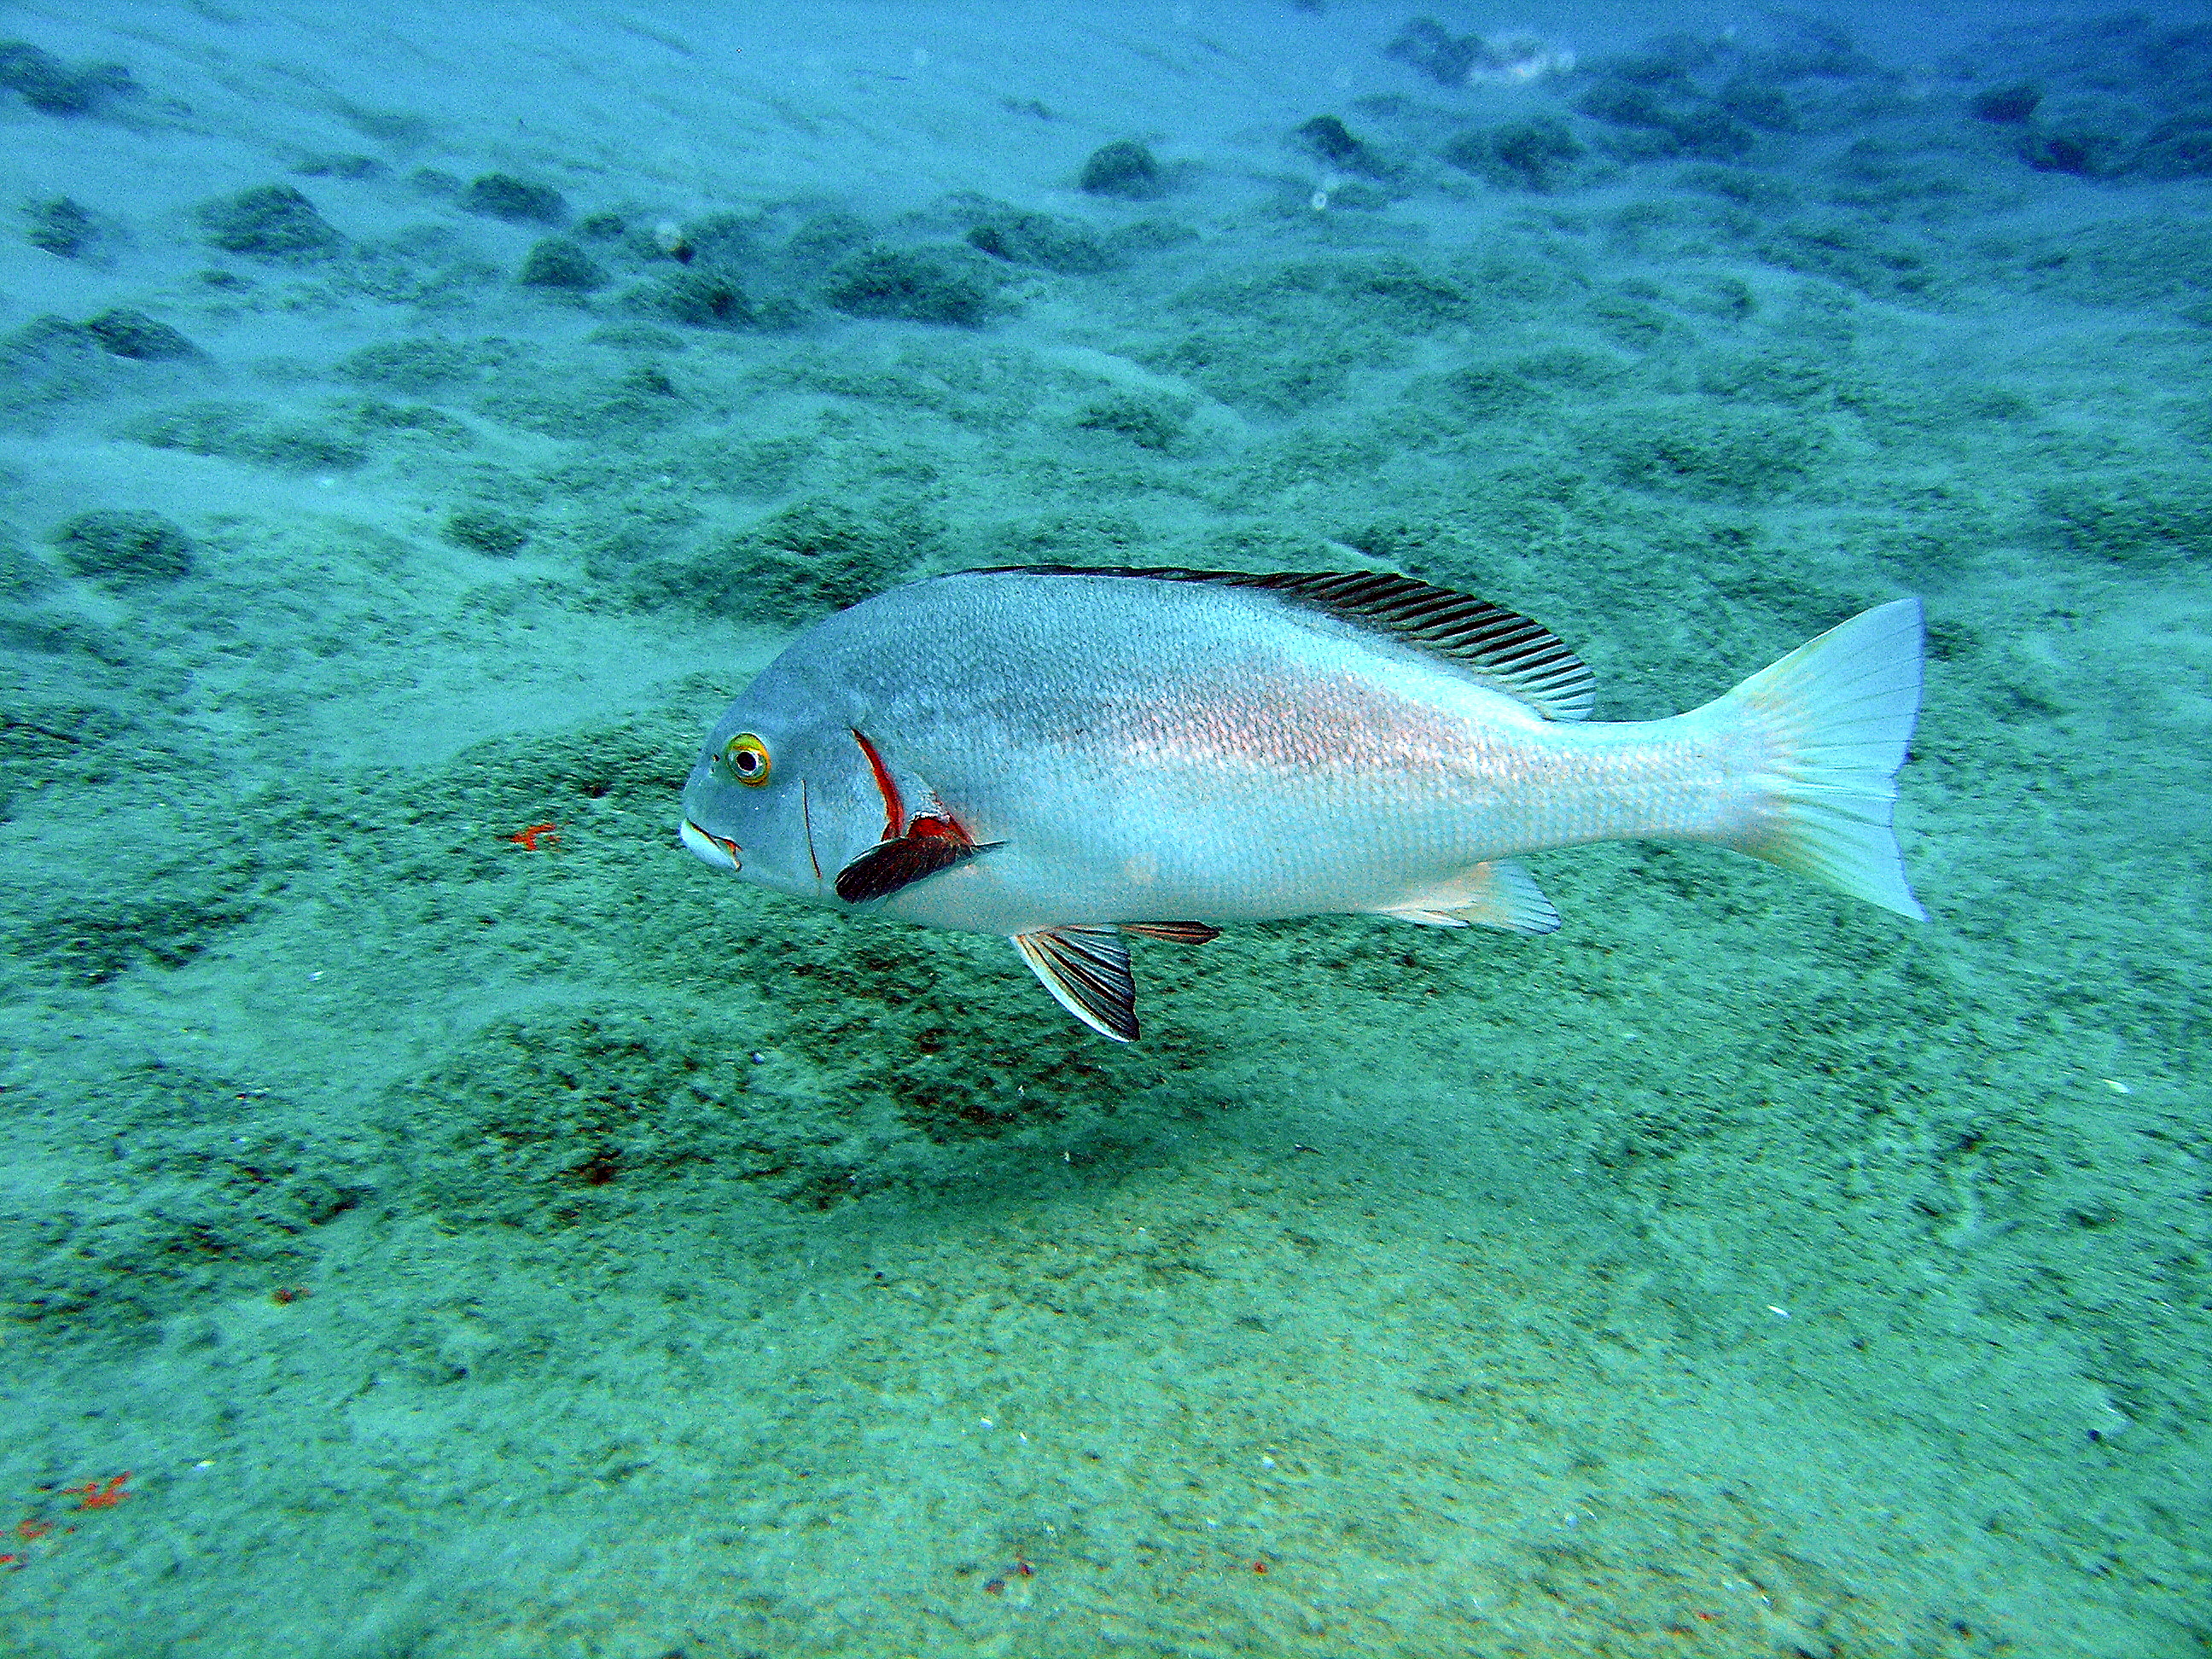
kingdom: Animalia
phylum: Chordata
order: Perciformes
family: Haemulidae
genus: Plectorhinchus
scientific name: Plectorhinchus schotaf
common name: Minstrel sweetlips
